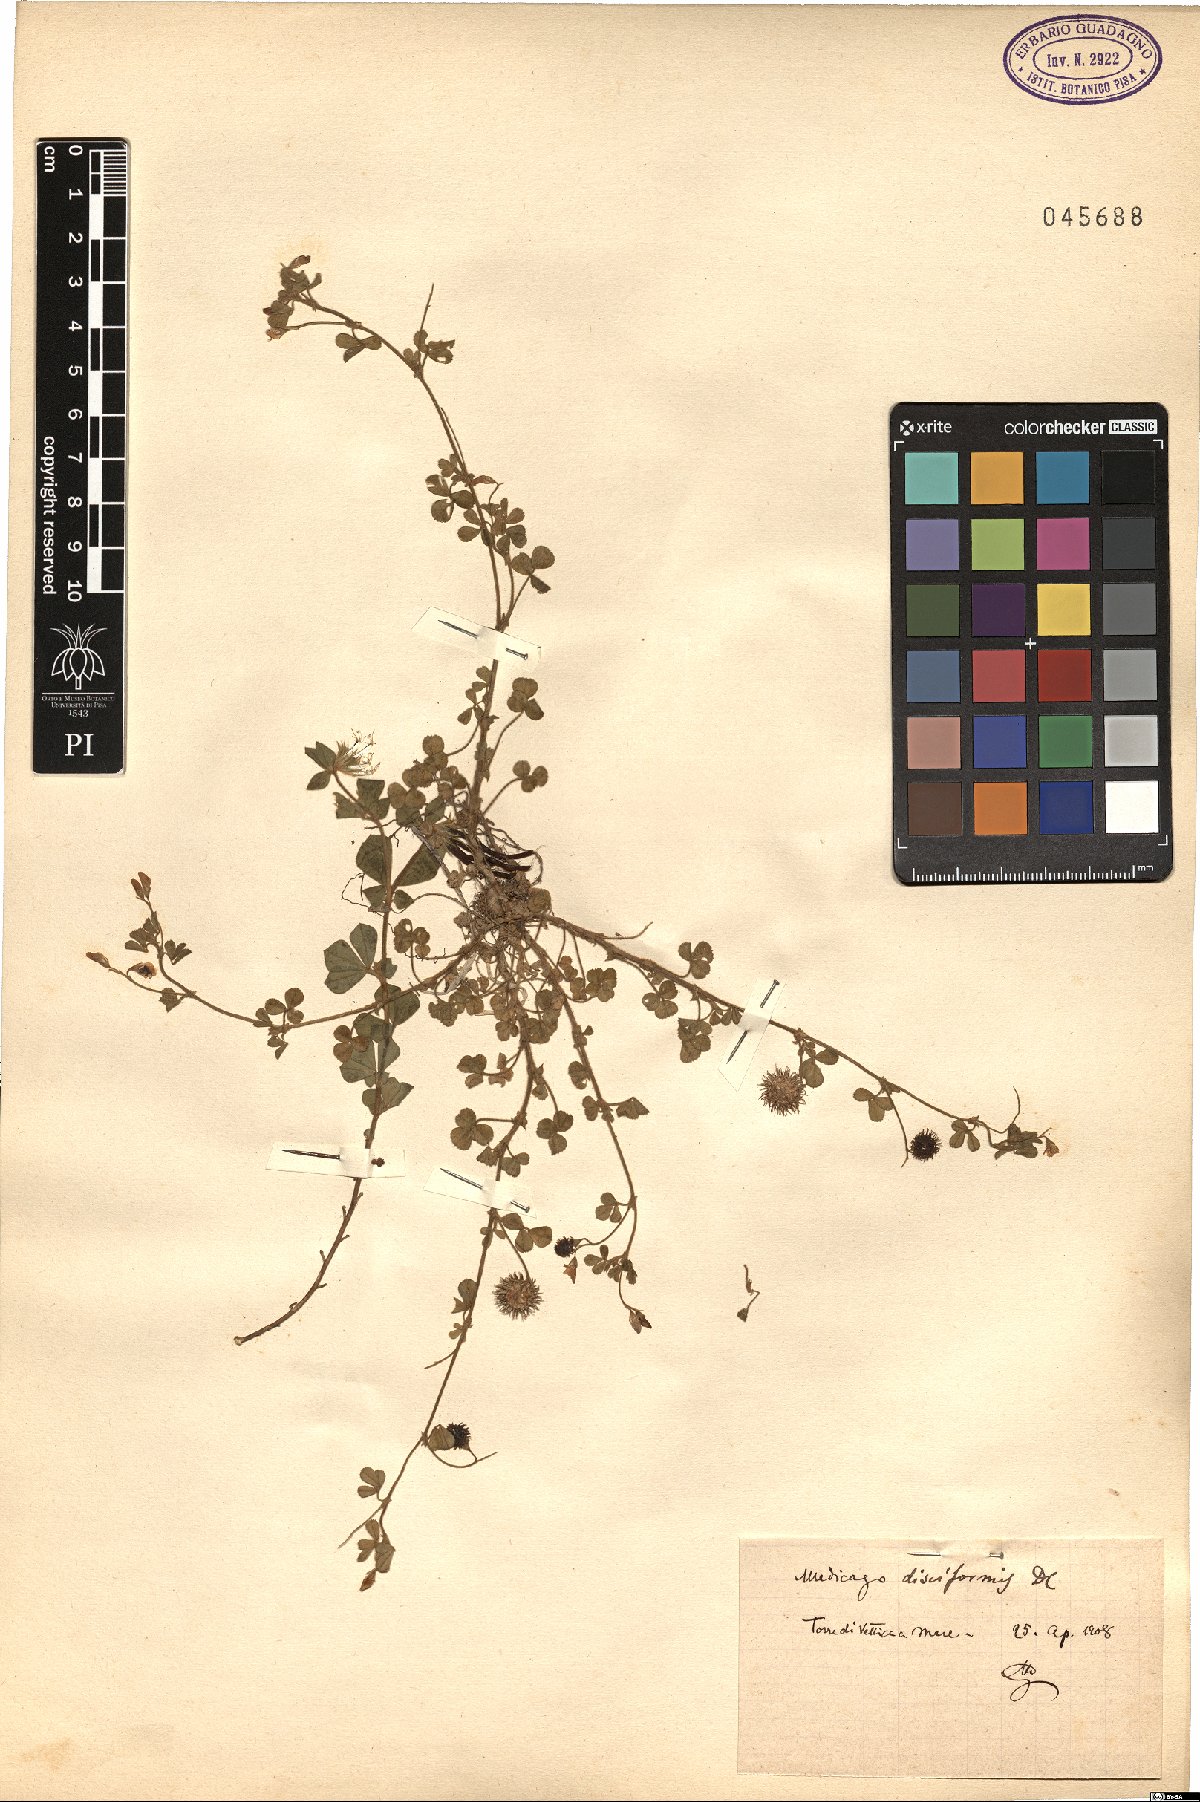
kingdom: Plantae
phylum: Tracheophyta
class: Magnoliopsida
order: Fabales
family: Fabaceae
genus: Medicago
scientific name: Medicago disciformis
